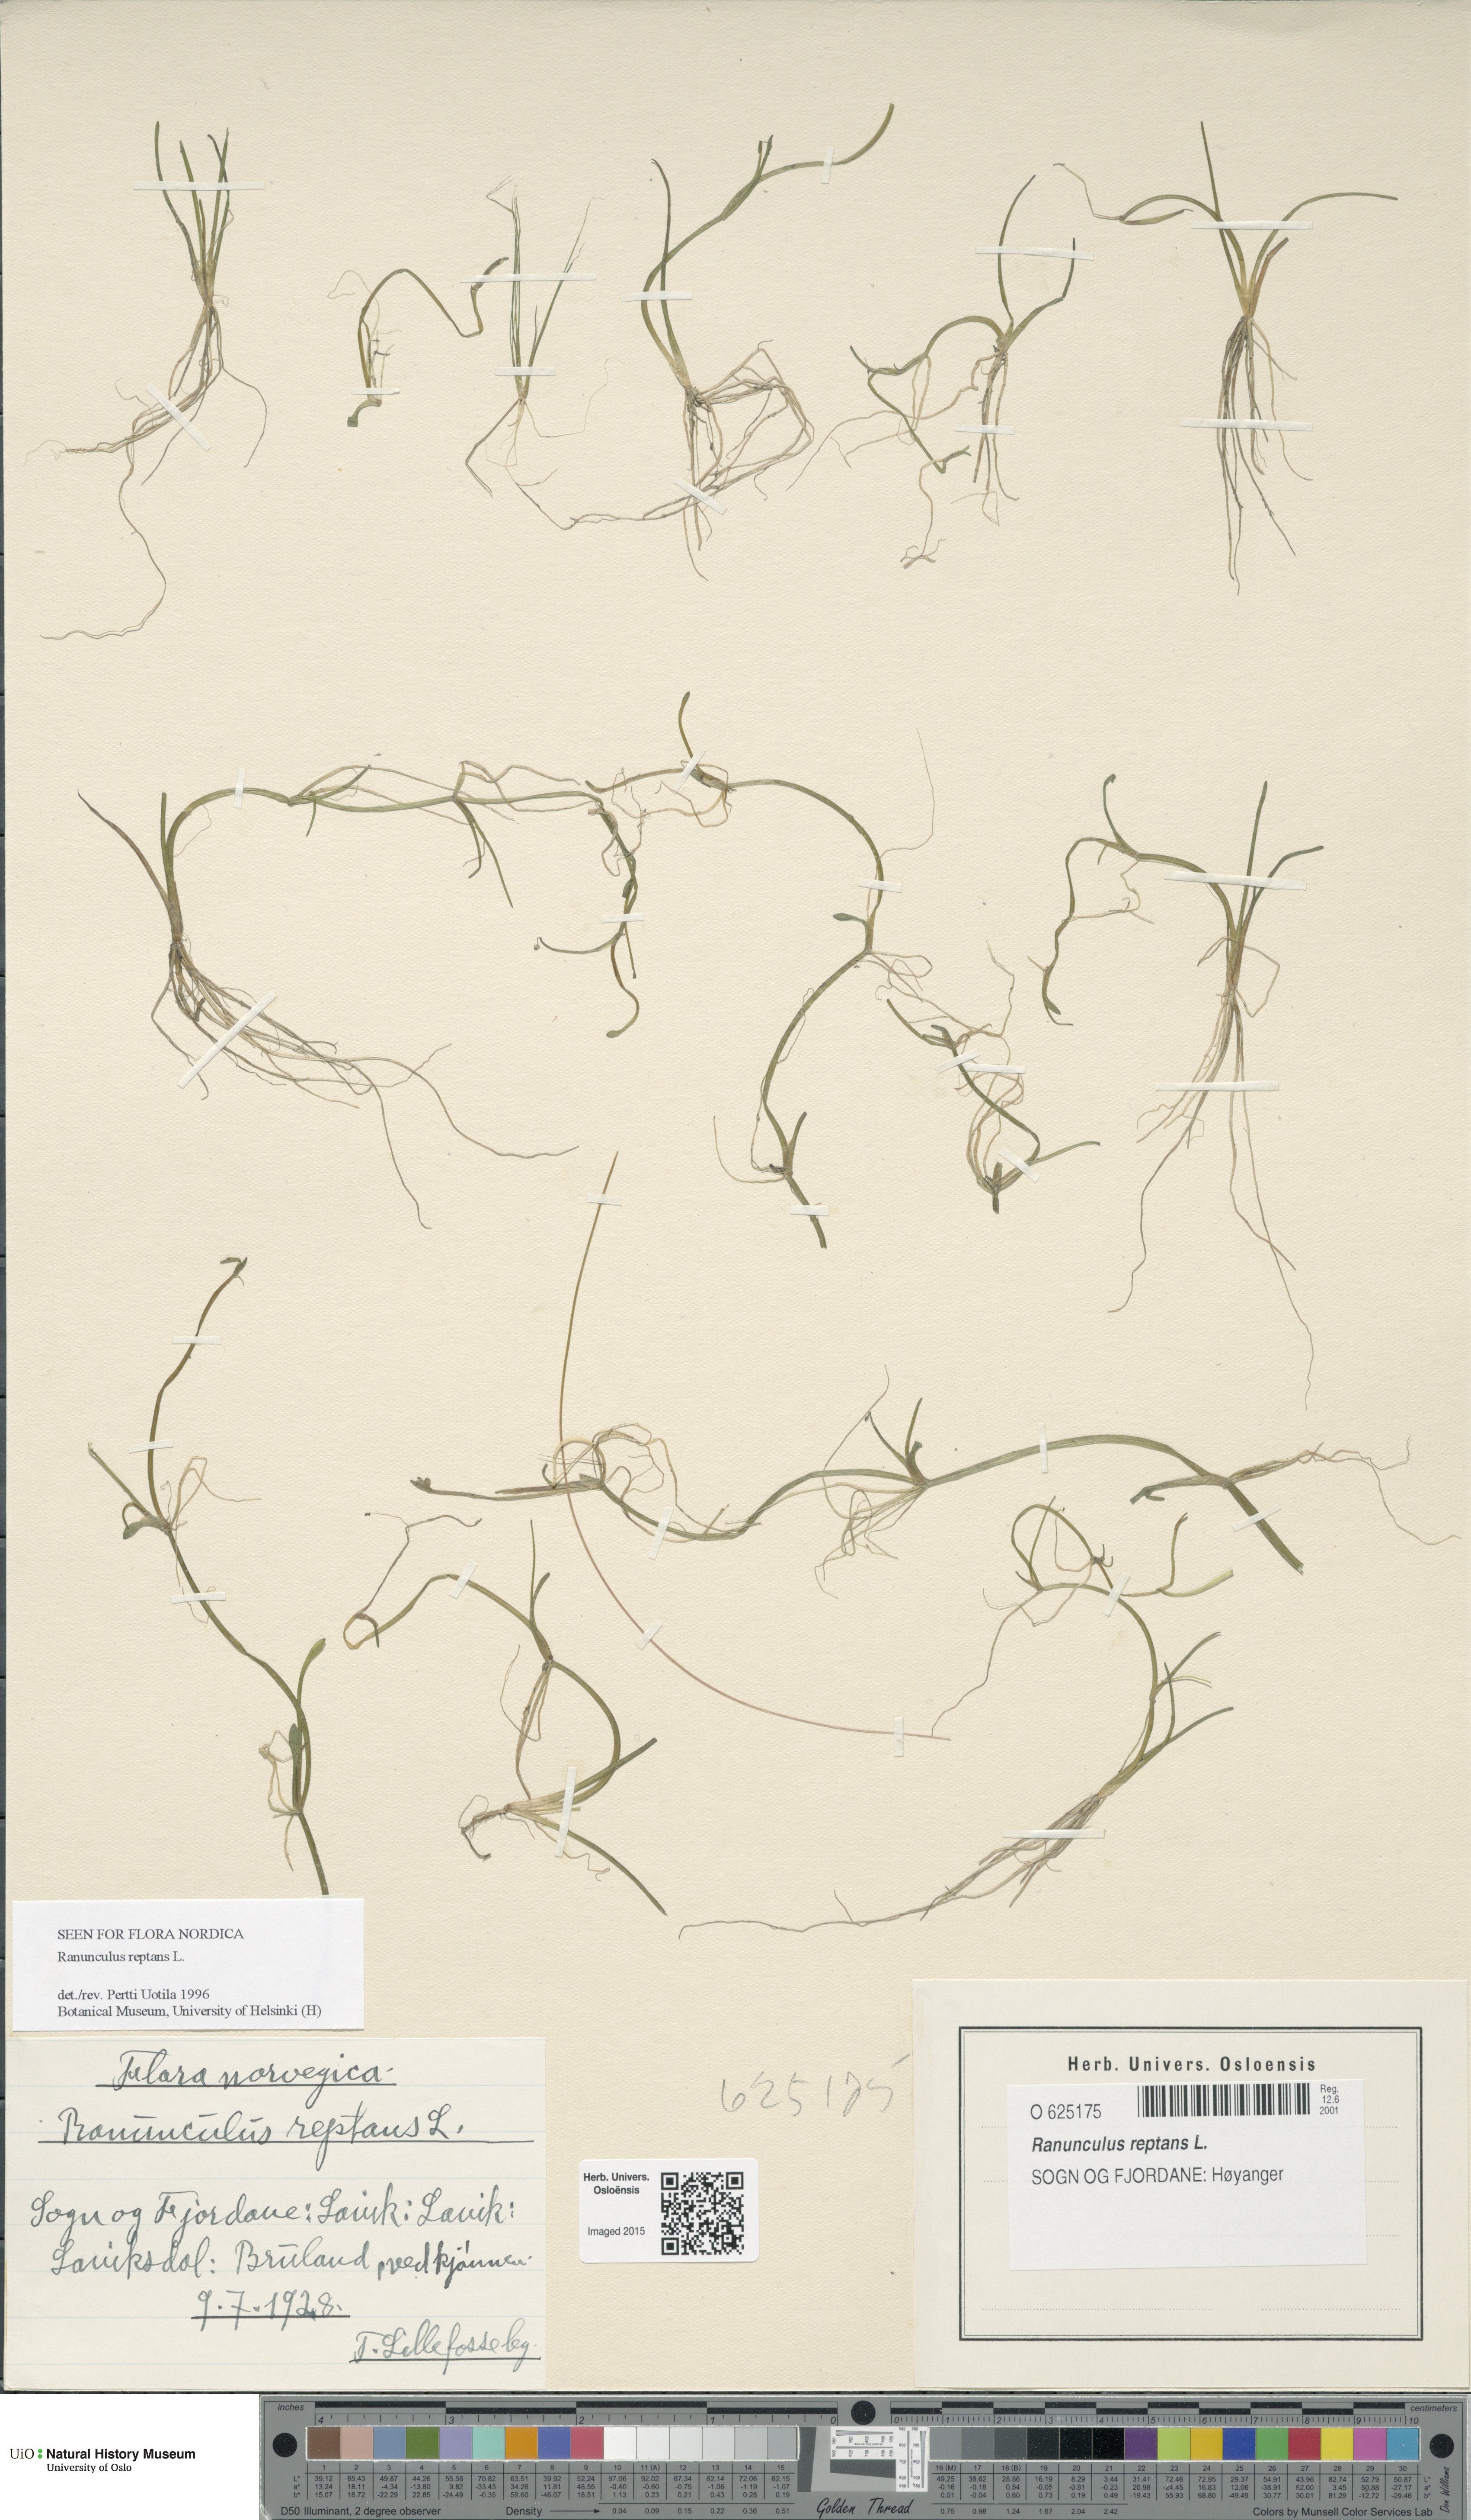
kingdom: Plantae
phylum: Tracheophyta
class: Magnoliopsida
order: Ranunculales
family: Ranunculaceae
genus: Ranunculus
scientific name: Ranunculus reptans
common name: Creeping spearwort
